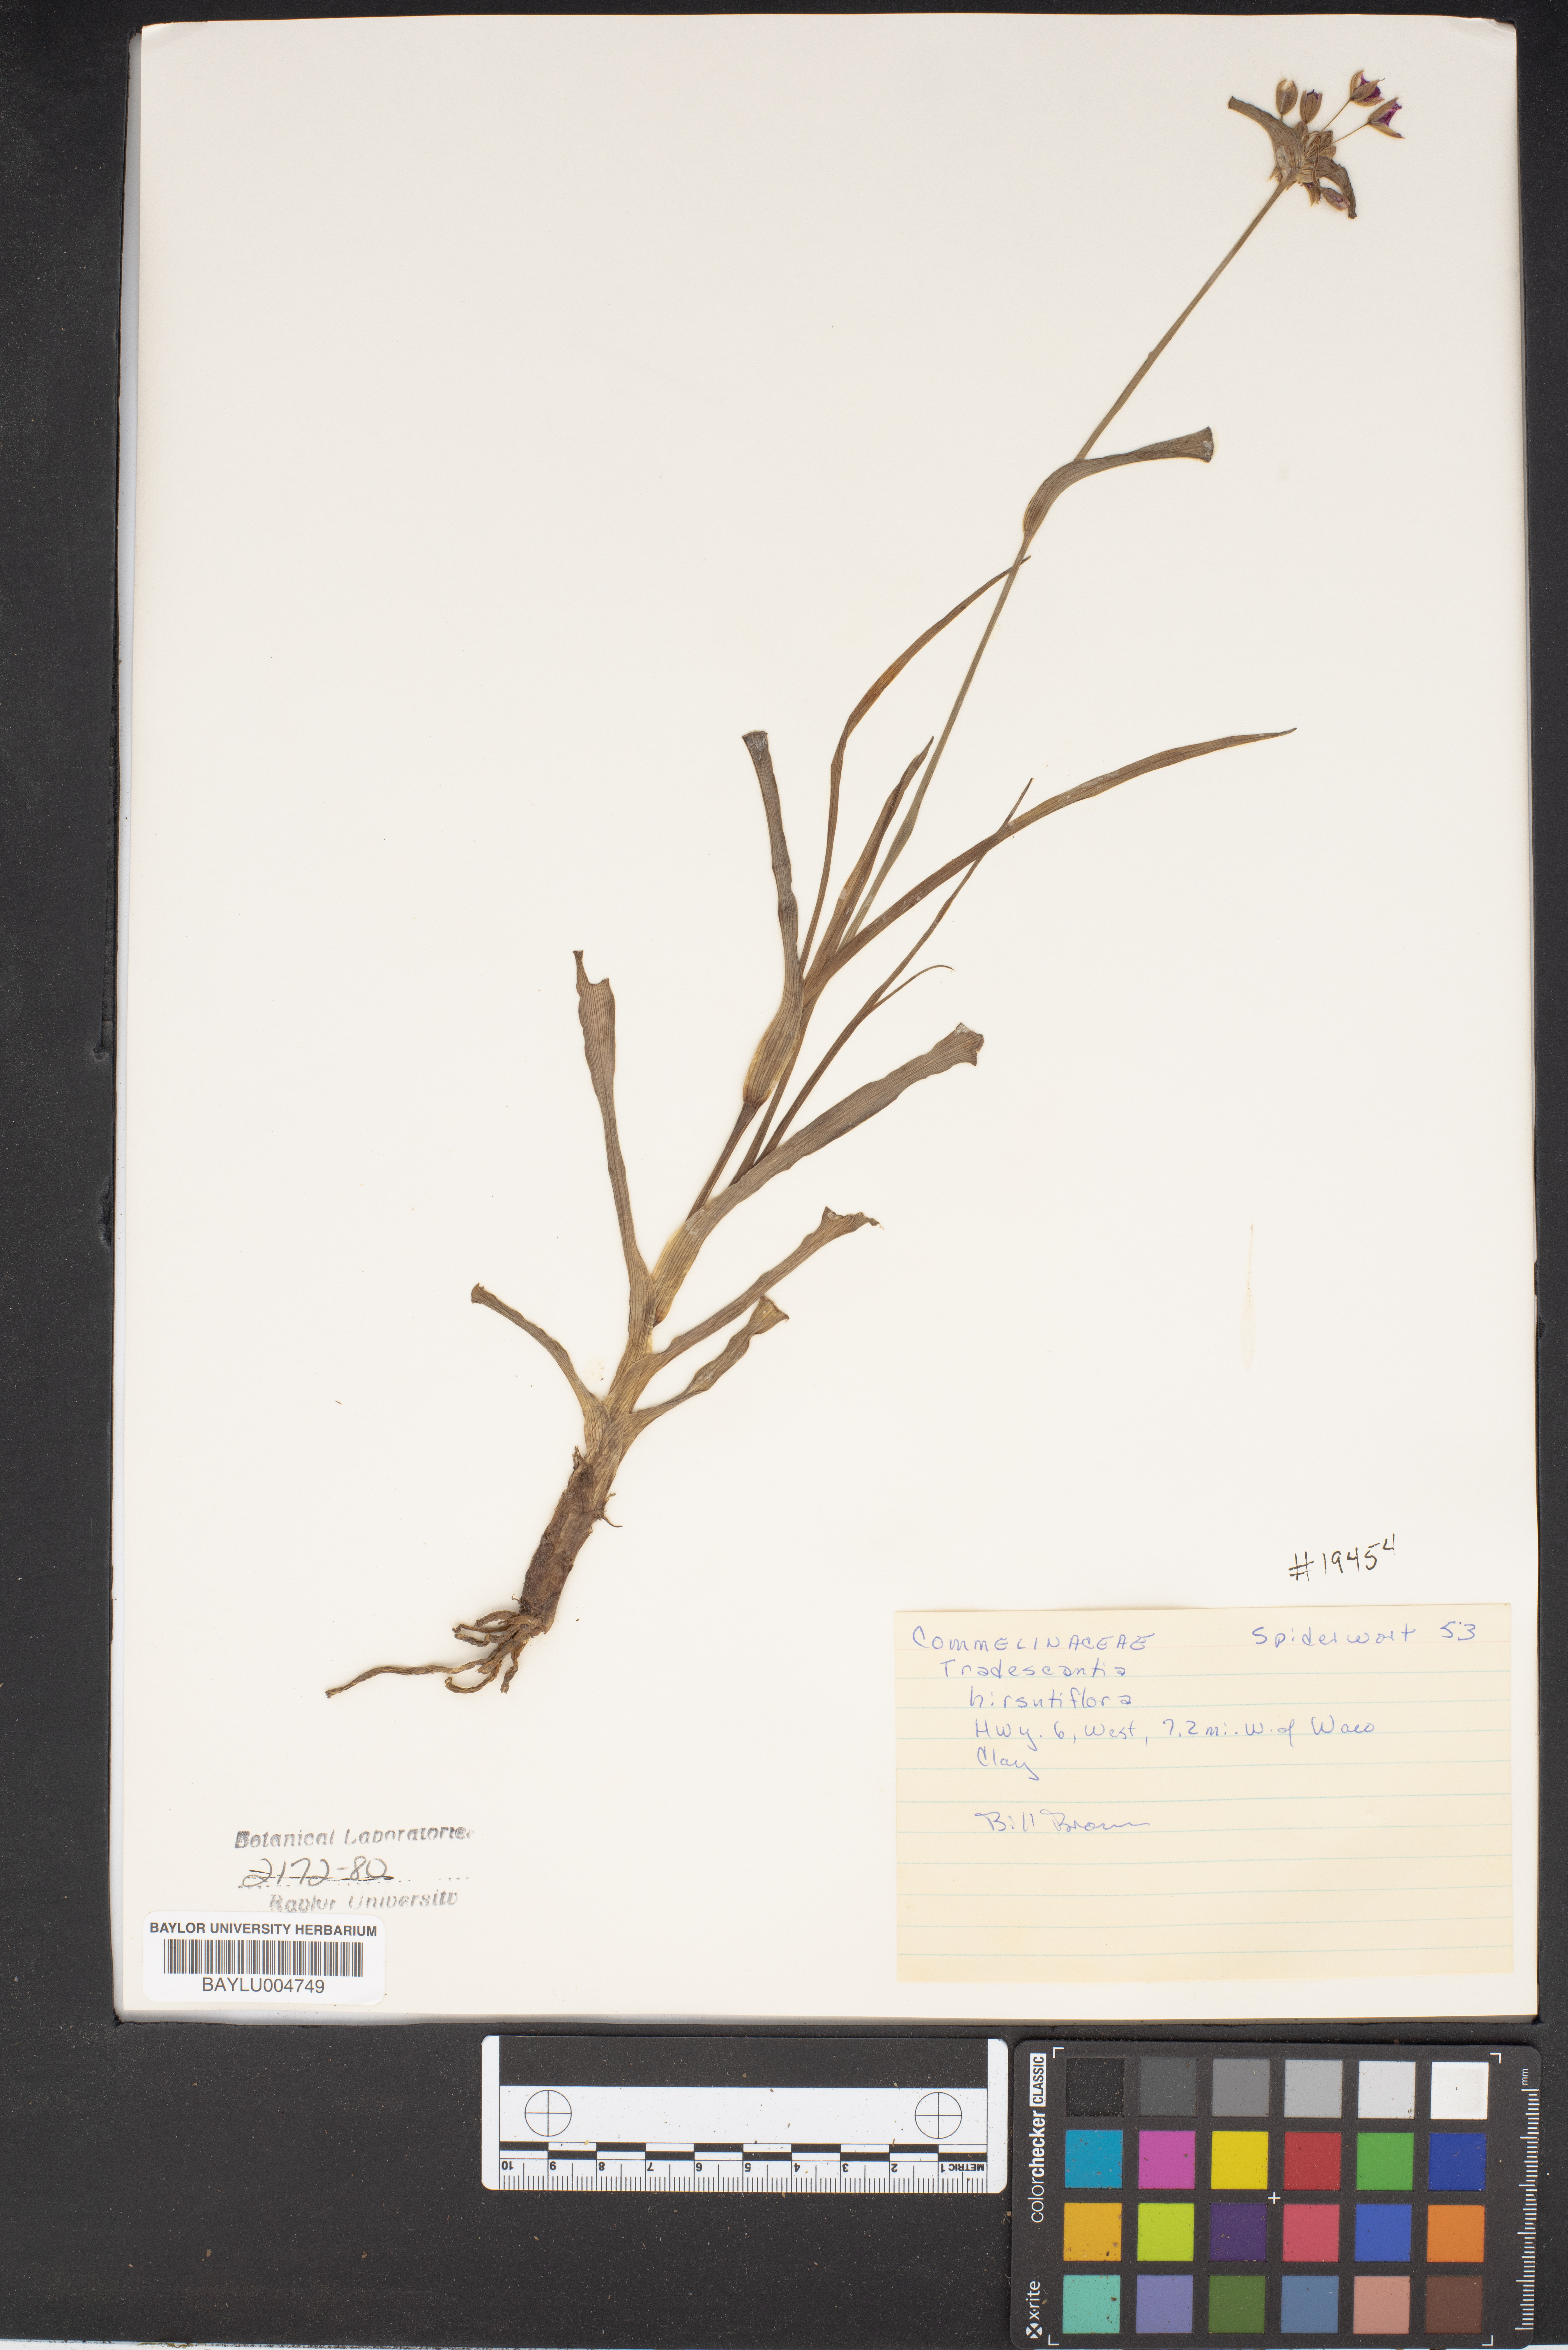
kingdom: Plantae
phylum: Tracheophyta
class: Liliopsida
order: Commelinales
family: Commelinaceae
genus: Tradescantia
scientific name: Tradescantia hirsutiflora
